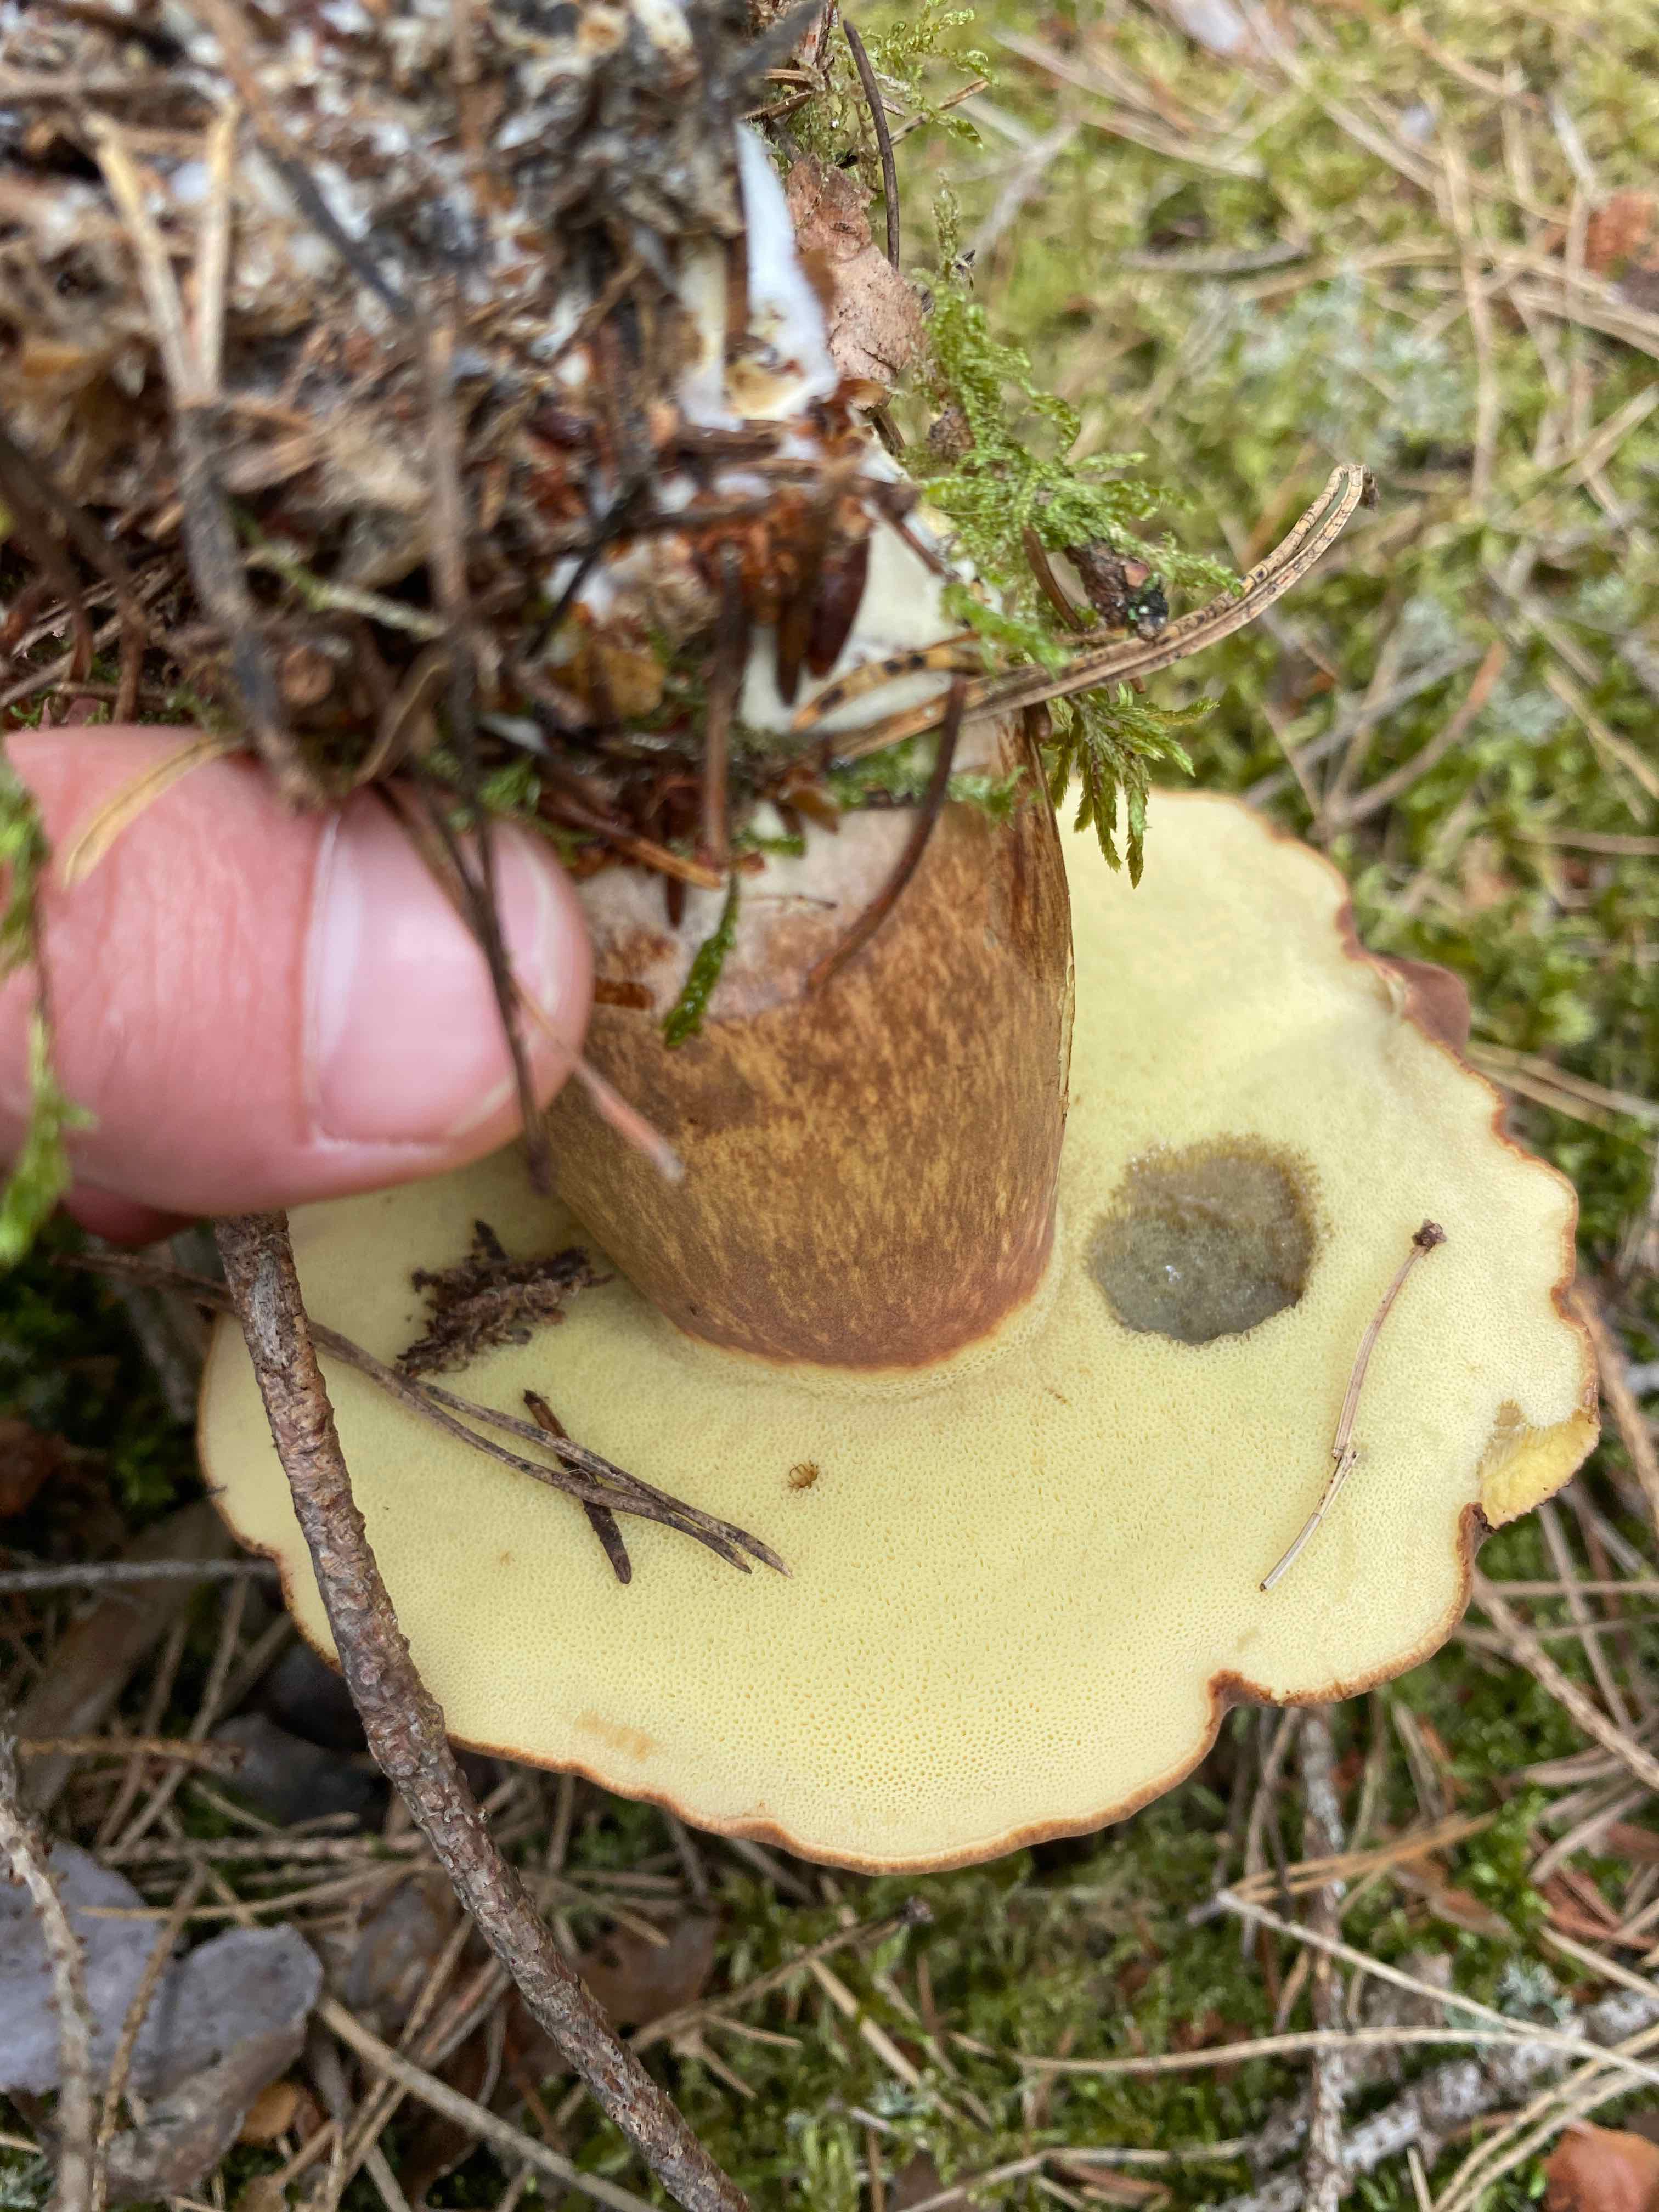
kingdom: Fungi
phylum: Basidiomycota
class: Agaricomycetes
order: Boletales
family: Boletaceae
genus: Imleria
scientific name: Imleria badia
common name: brunstokket rørhat
